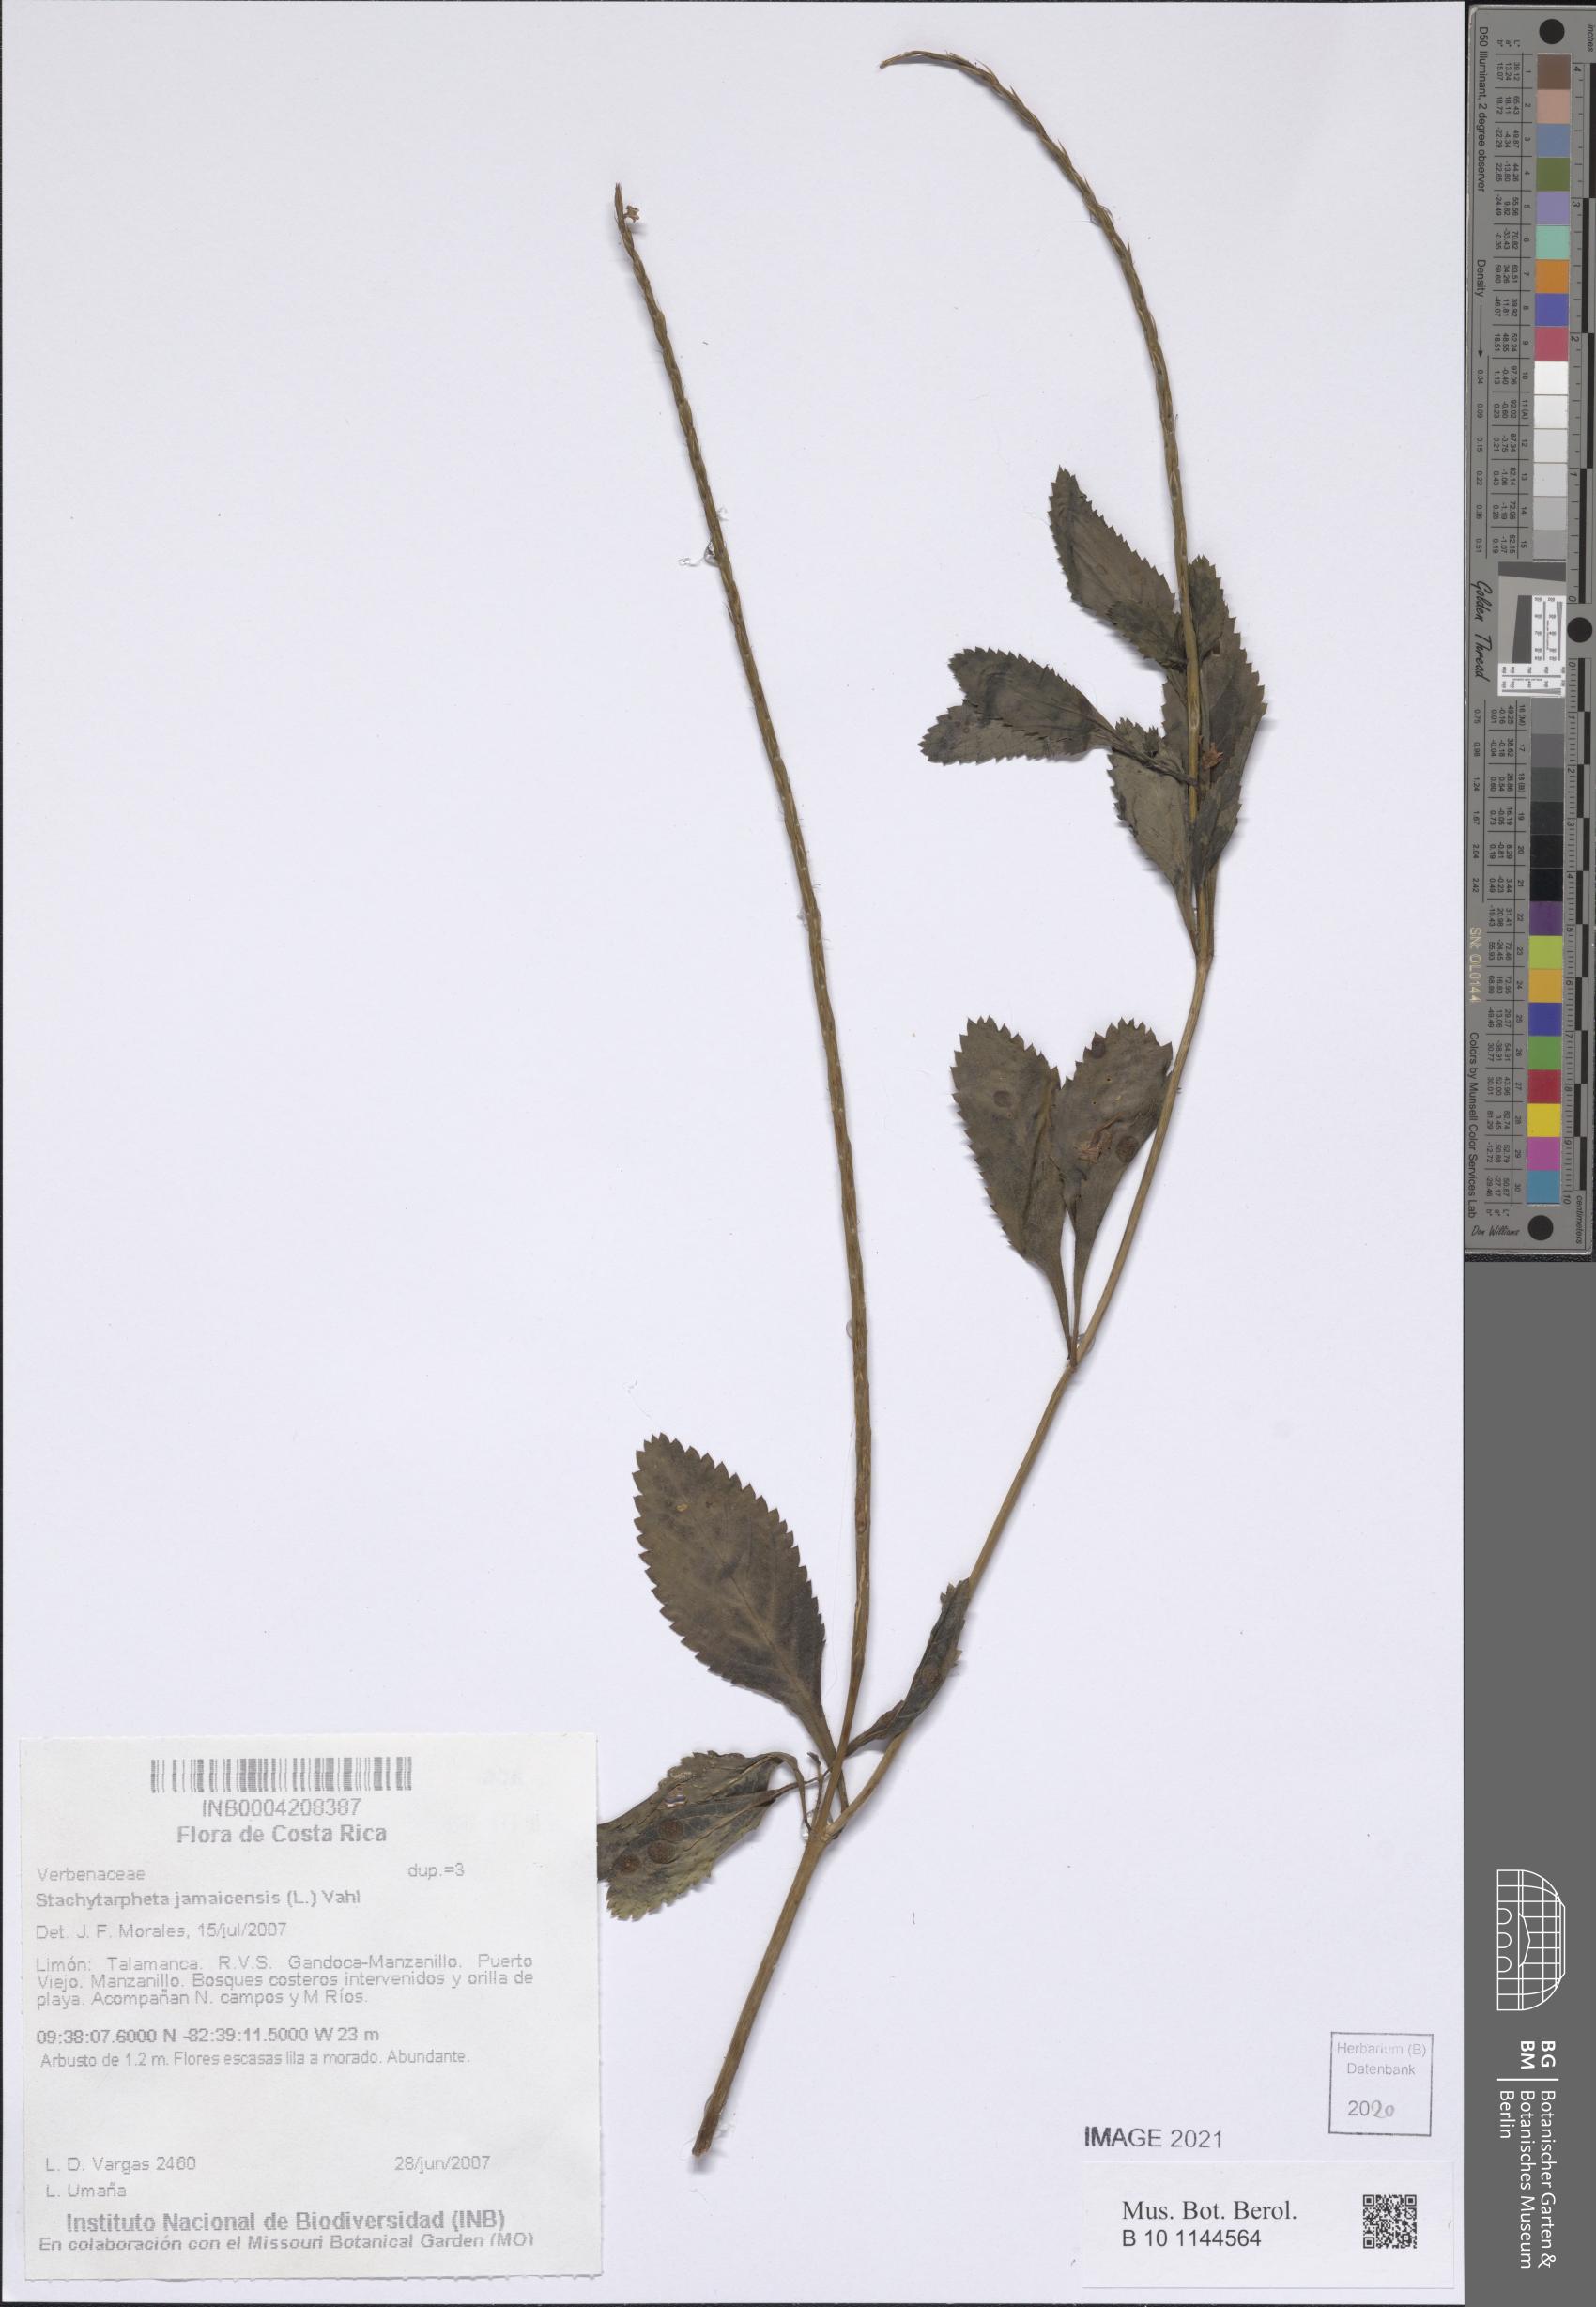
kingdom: Plantae
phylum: Tracheophyta
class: Magnoliopsida
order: Lamiales
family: Verbenaceae
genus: Stachytarpheta
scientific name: Stachytarpheta jamaicensis
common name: Light-blue snakeweed
